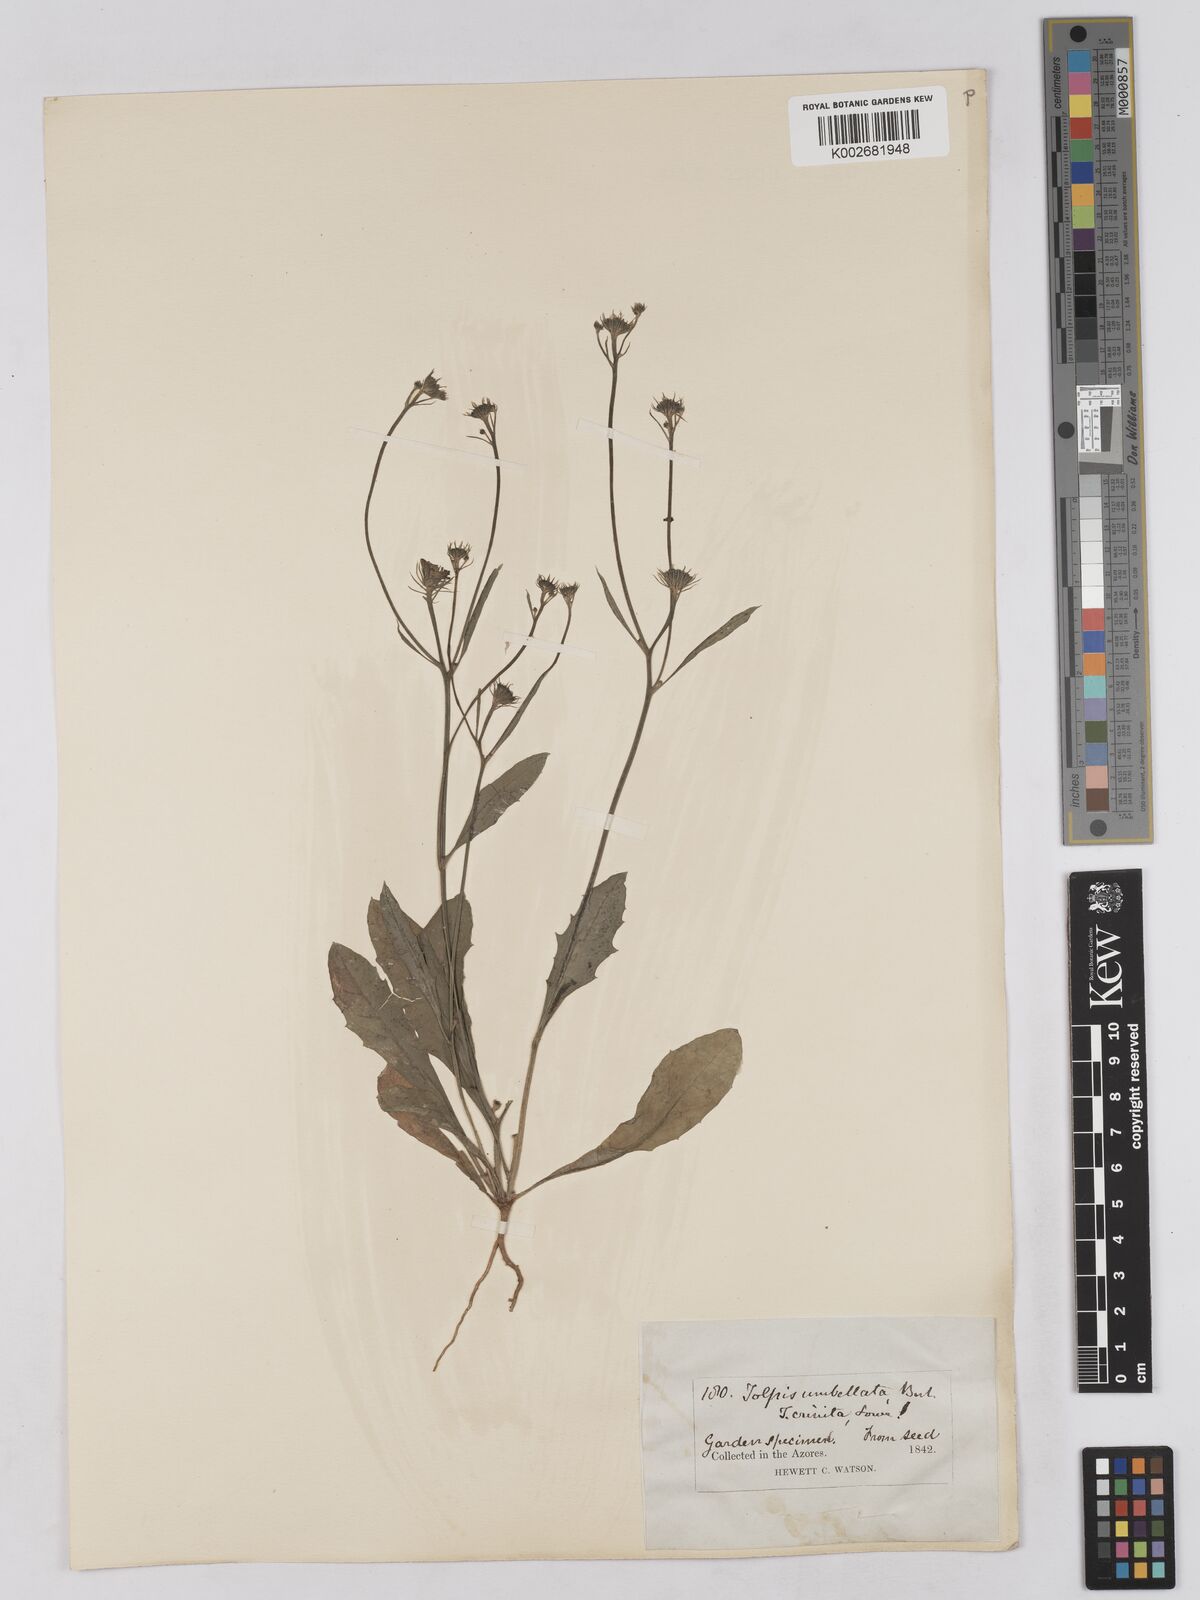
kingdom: Plantae
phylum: Tracheophyta
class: Magnoliopsida
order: Asterales
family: Asteraceae
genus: Tolpis
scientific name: Tolpis umbellata
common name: Yellow hawkweed
